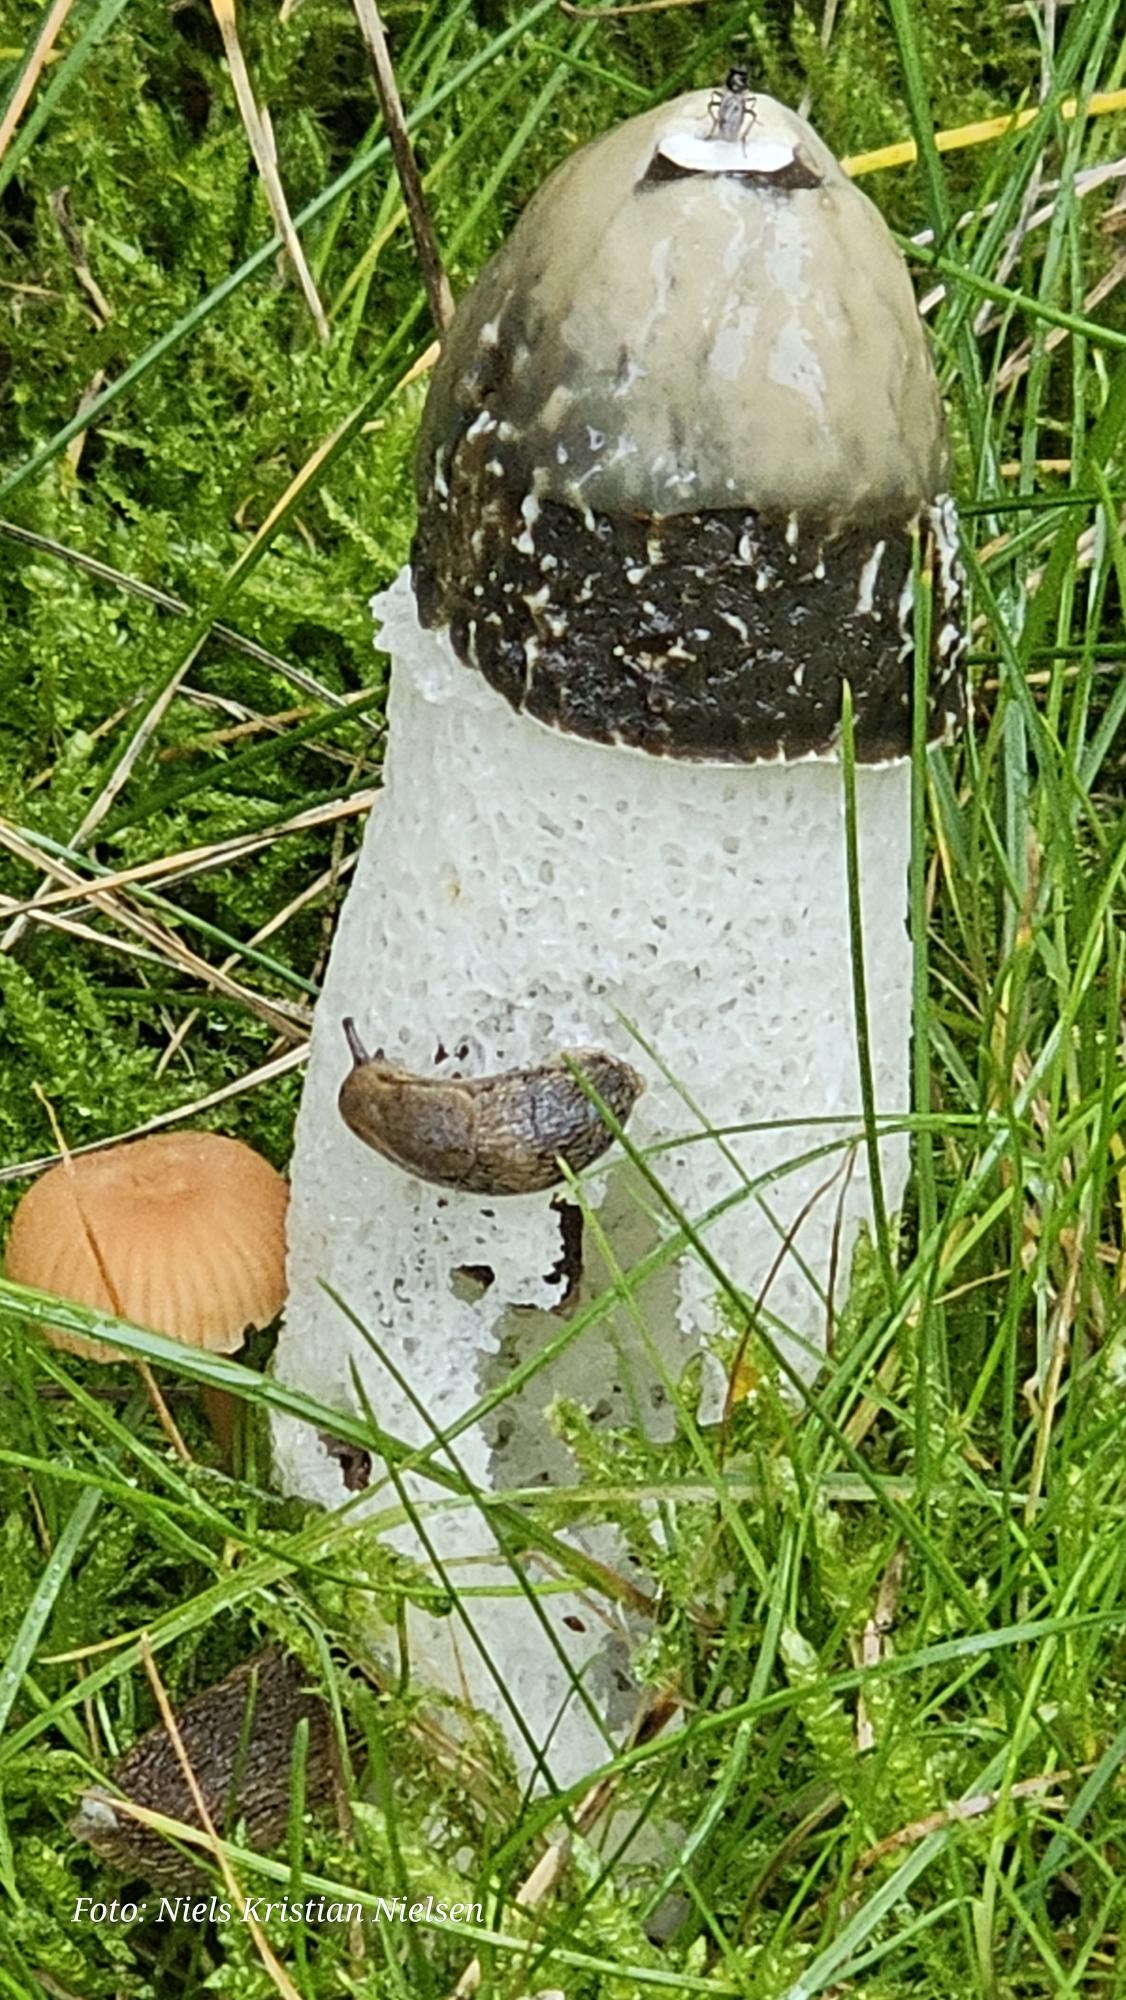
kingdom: Fungi
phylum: Basidiomycota
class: Agaricomycetes
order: Phallales
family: Phallaceae
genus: Phallus
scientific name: Phallus impudicus
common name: Almindelig stinksvamp
